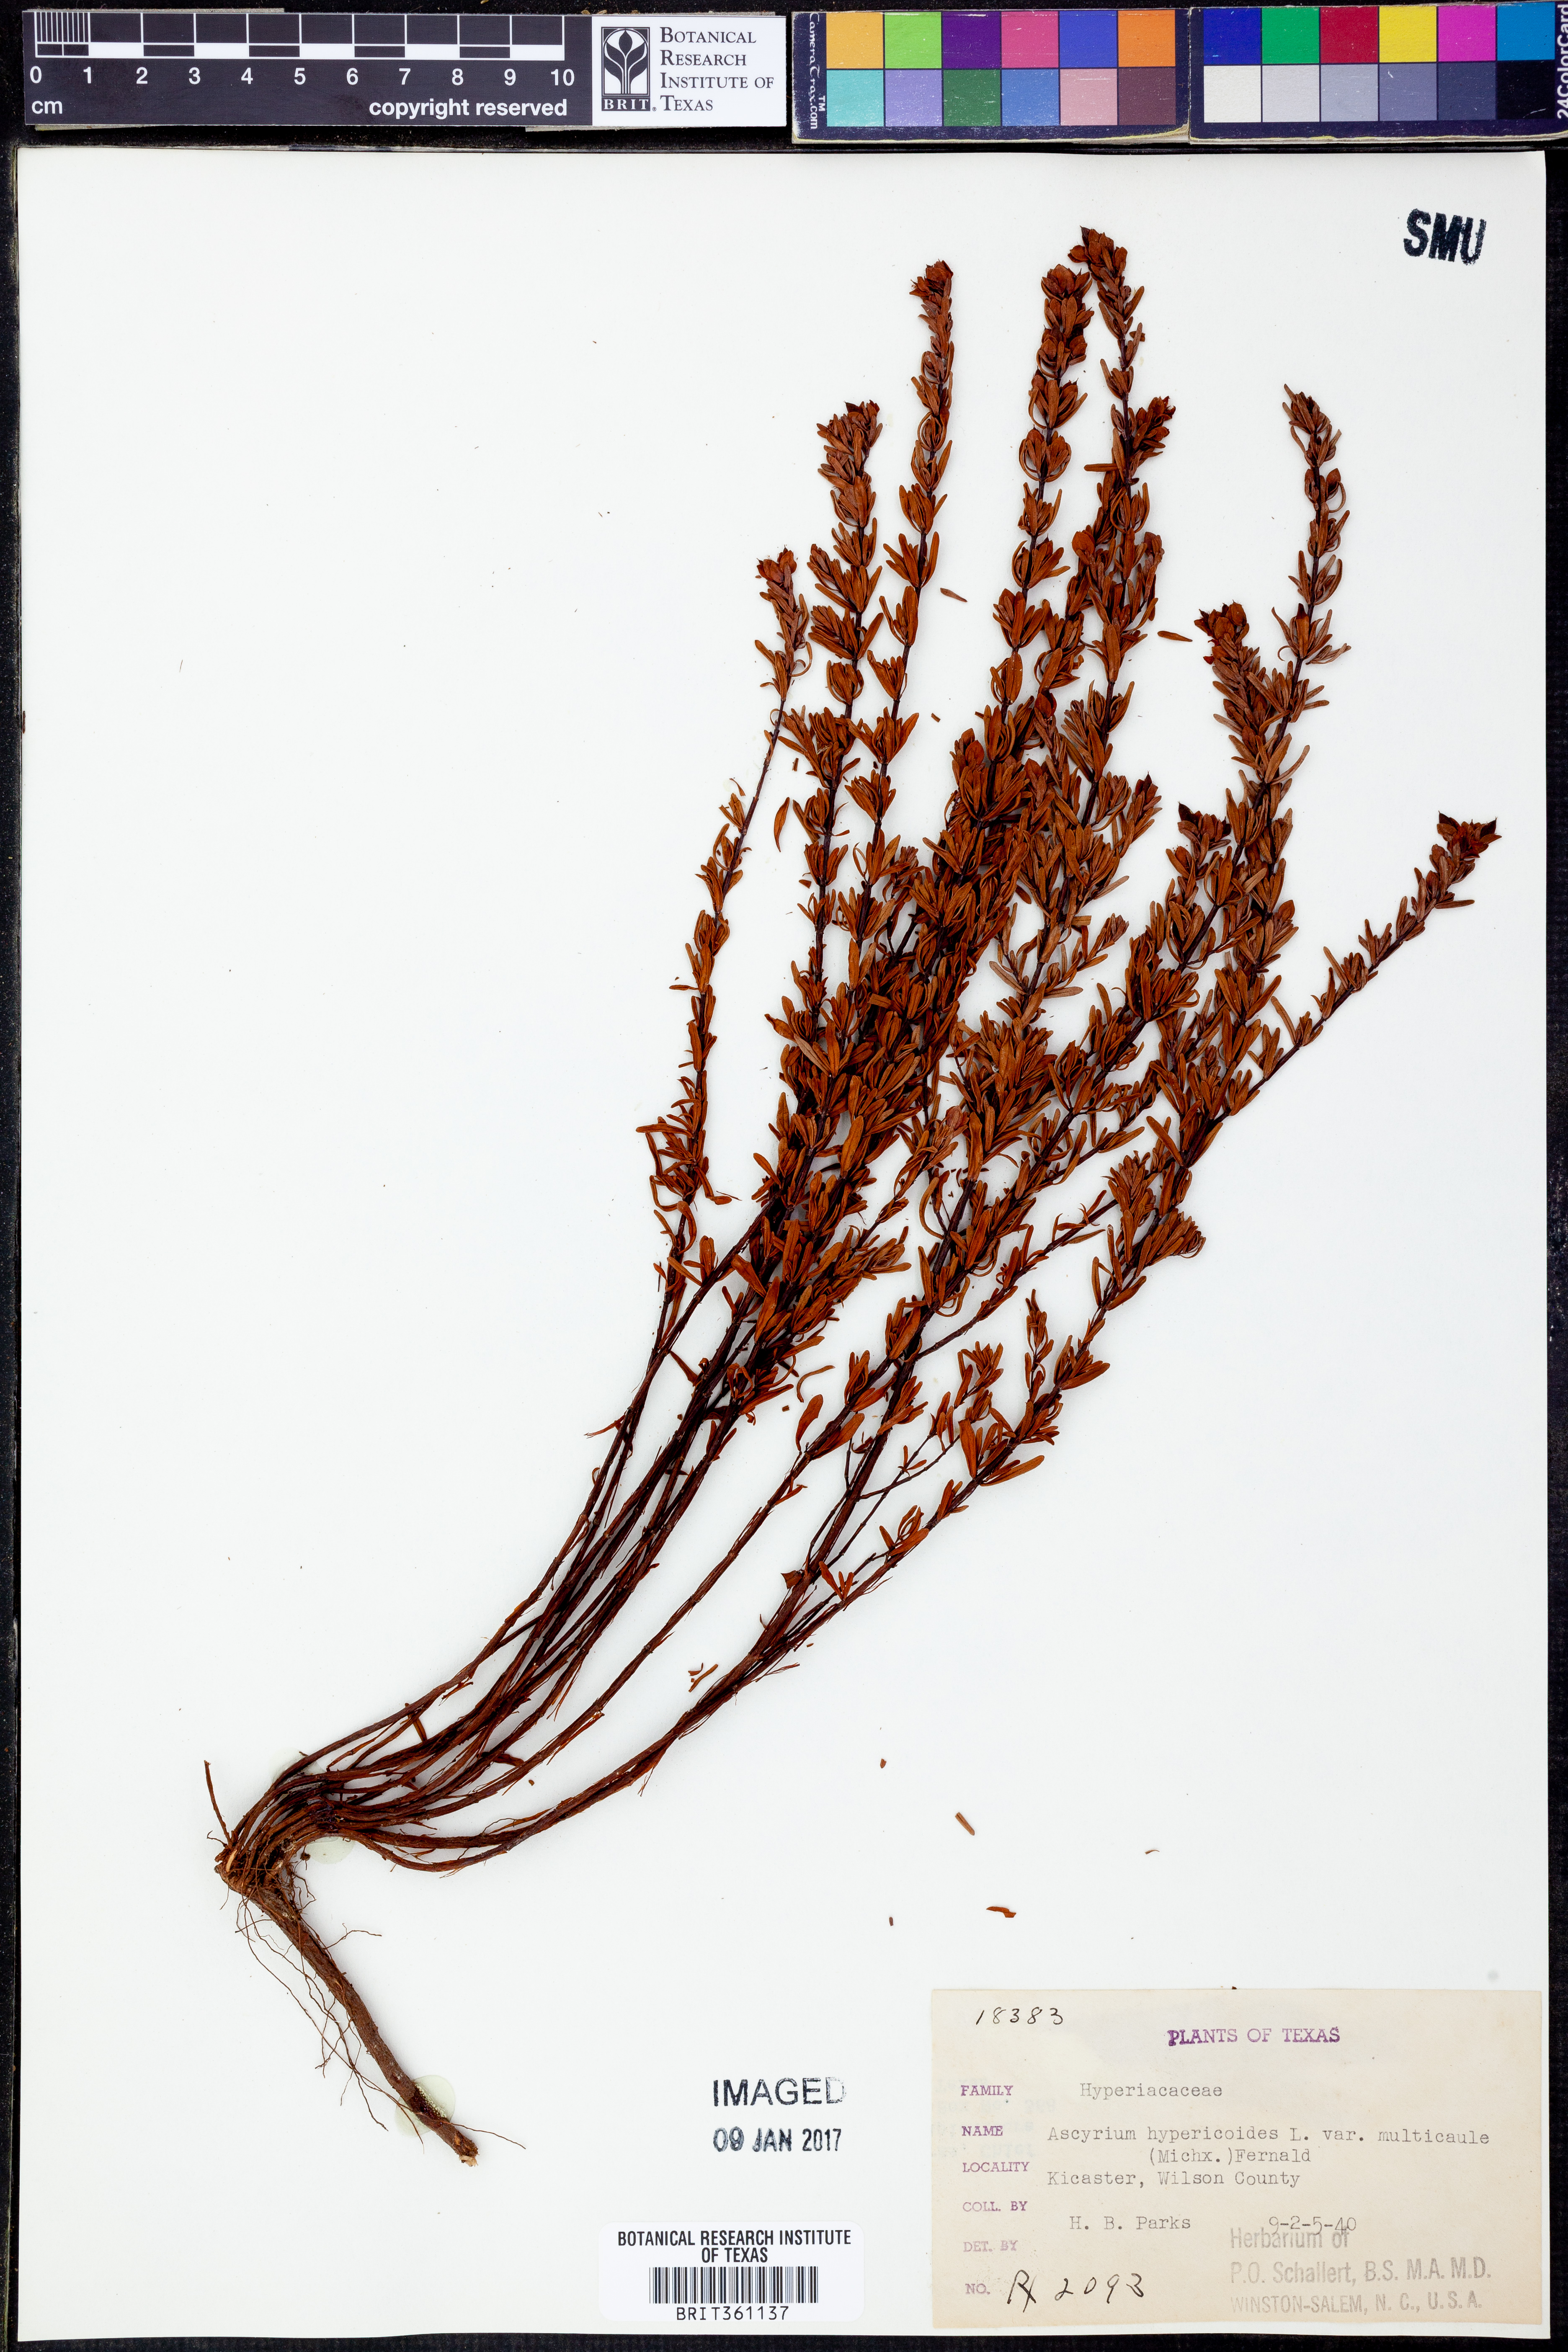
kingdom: Plantae
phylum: Tracheophyta
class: Magnoliopsida
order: Malpighiales
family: Hypericaceae
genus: Hypericum
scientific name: Hypericum hypericoides
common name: St. andrew's cross
